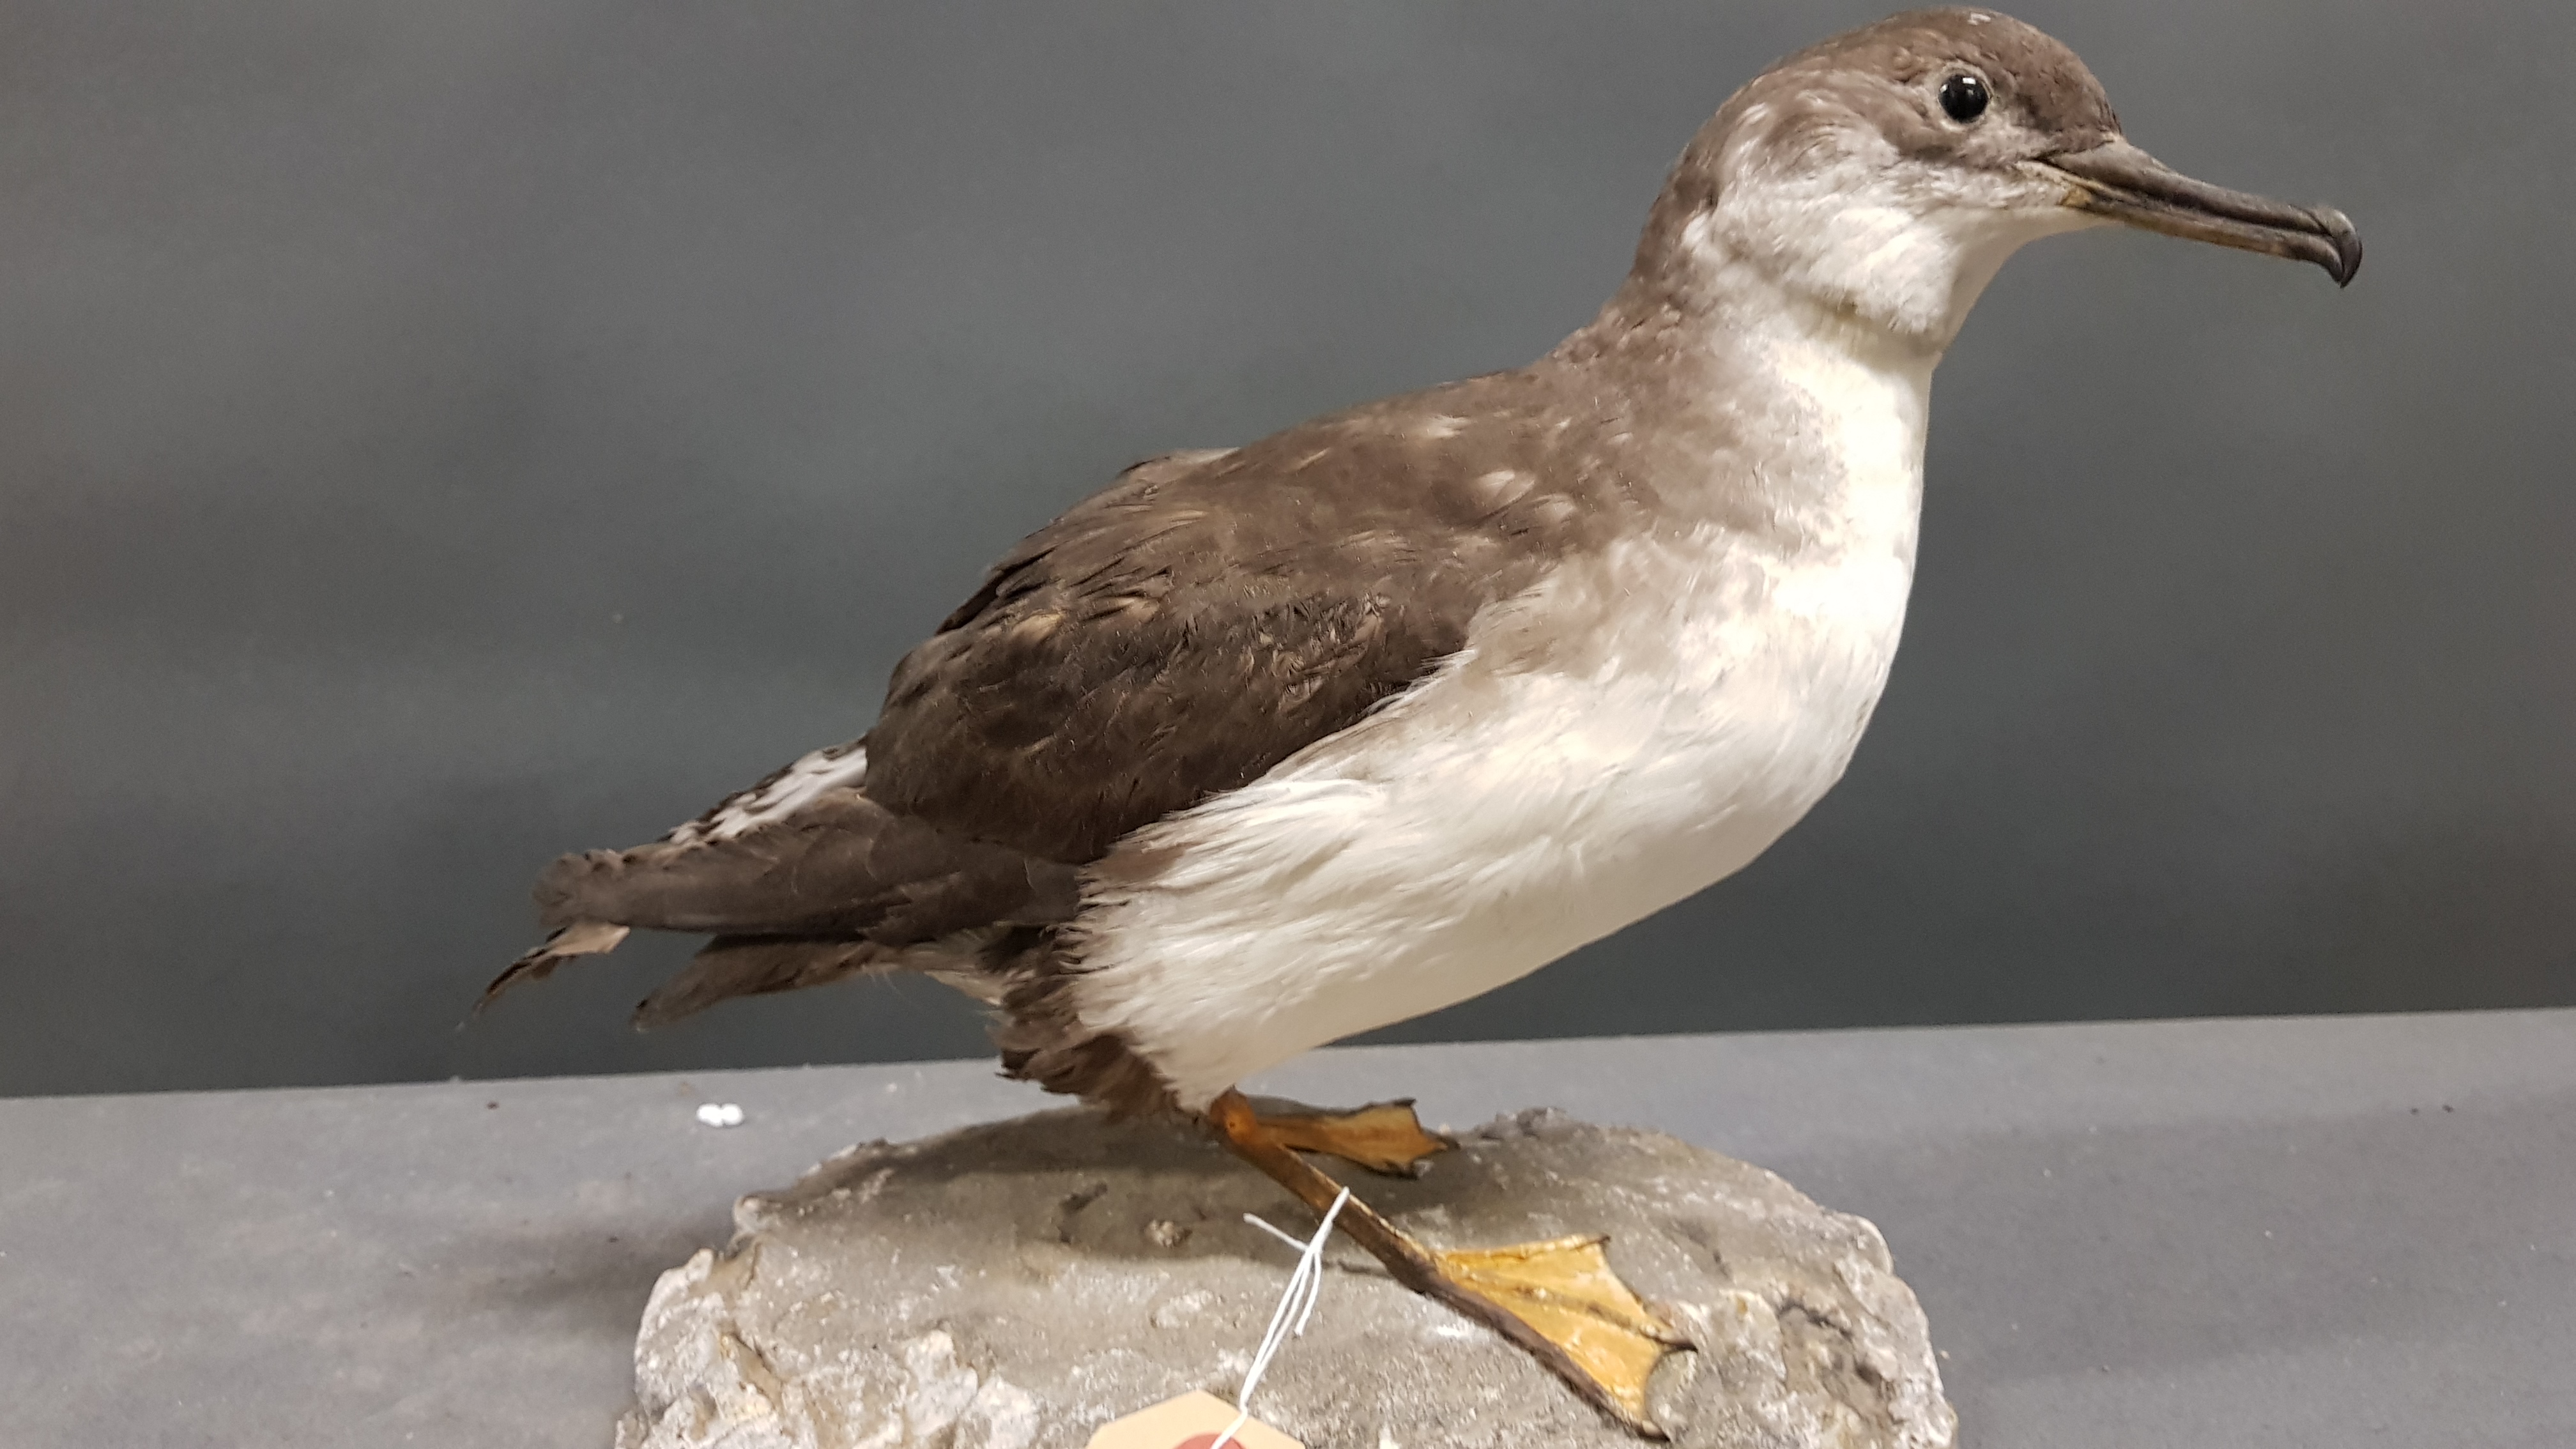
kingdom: Animalia
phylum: Chordata
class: Aves
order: Procellariiformes
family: Procellariidae
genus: Puffinus
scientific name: Puffinus yelkouan
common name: Yelkouan shearwater
